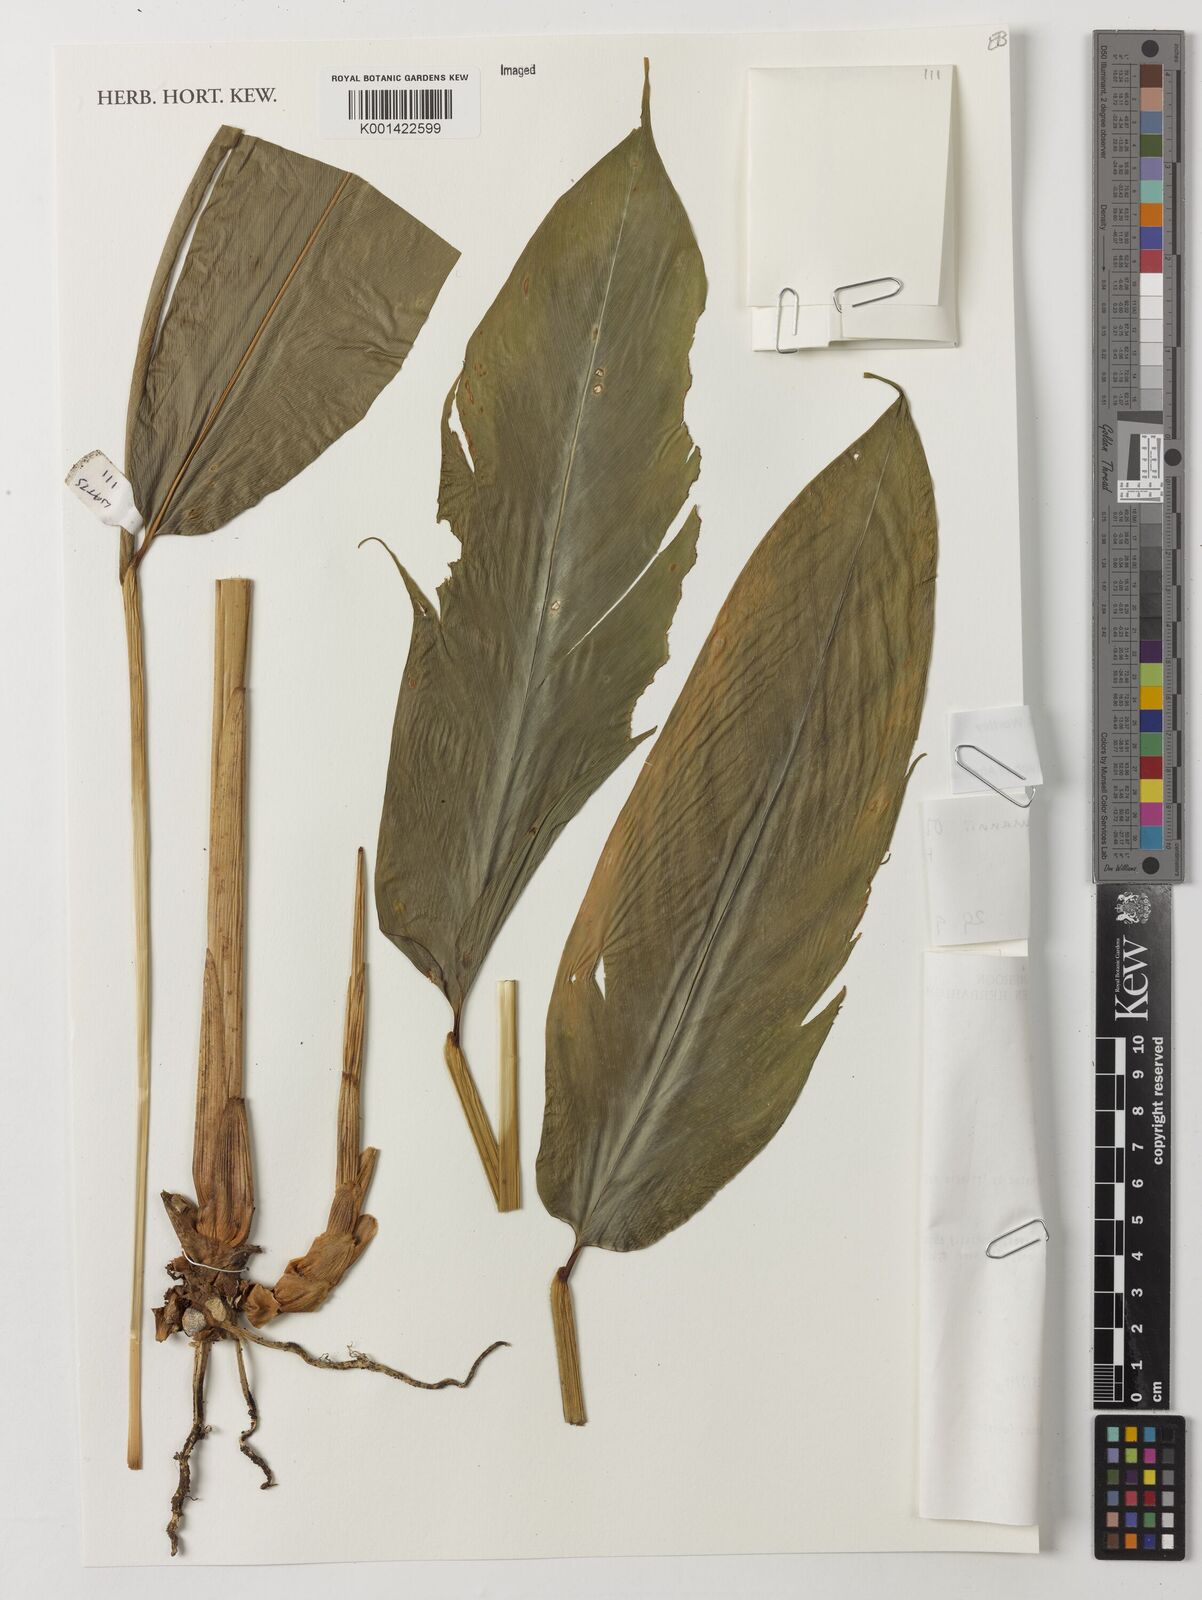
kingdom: Plantae
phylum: Tracheophyta
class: Liliopsida
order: Zingiberales
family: Zingiberaceae
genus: Aframomum
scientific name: Aframomum fragrans
